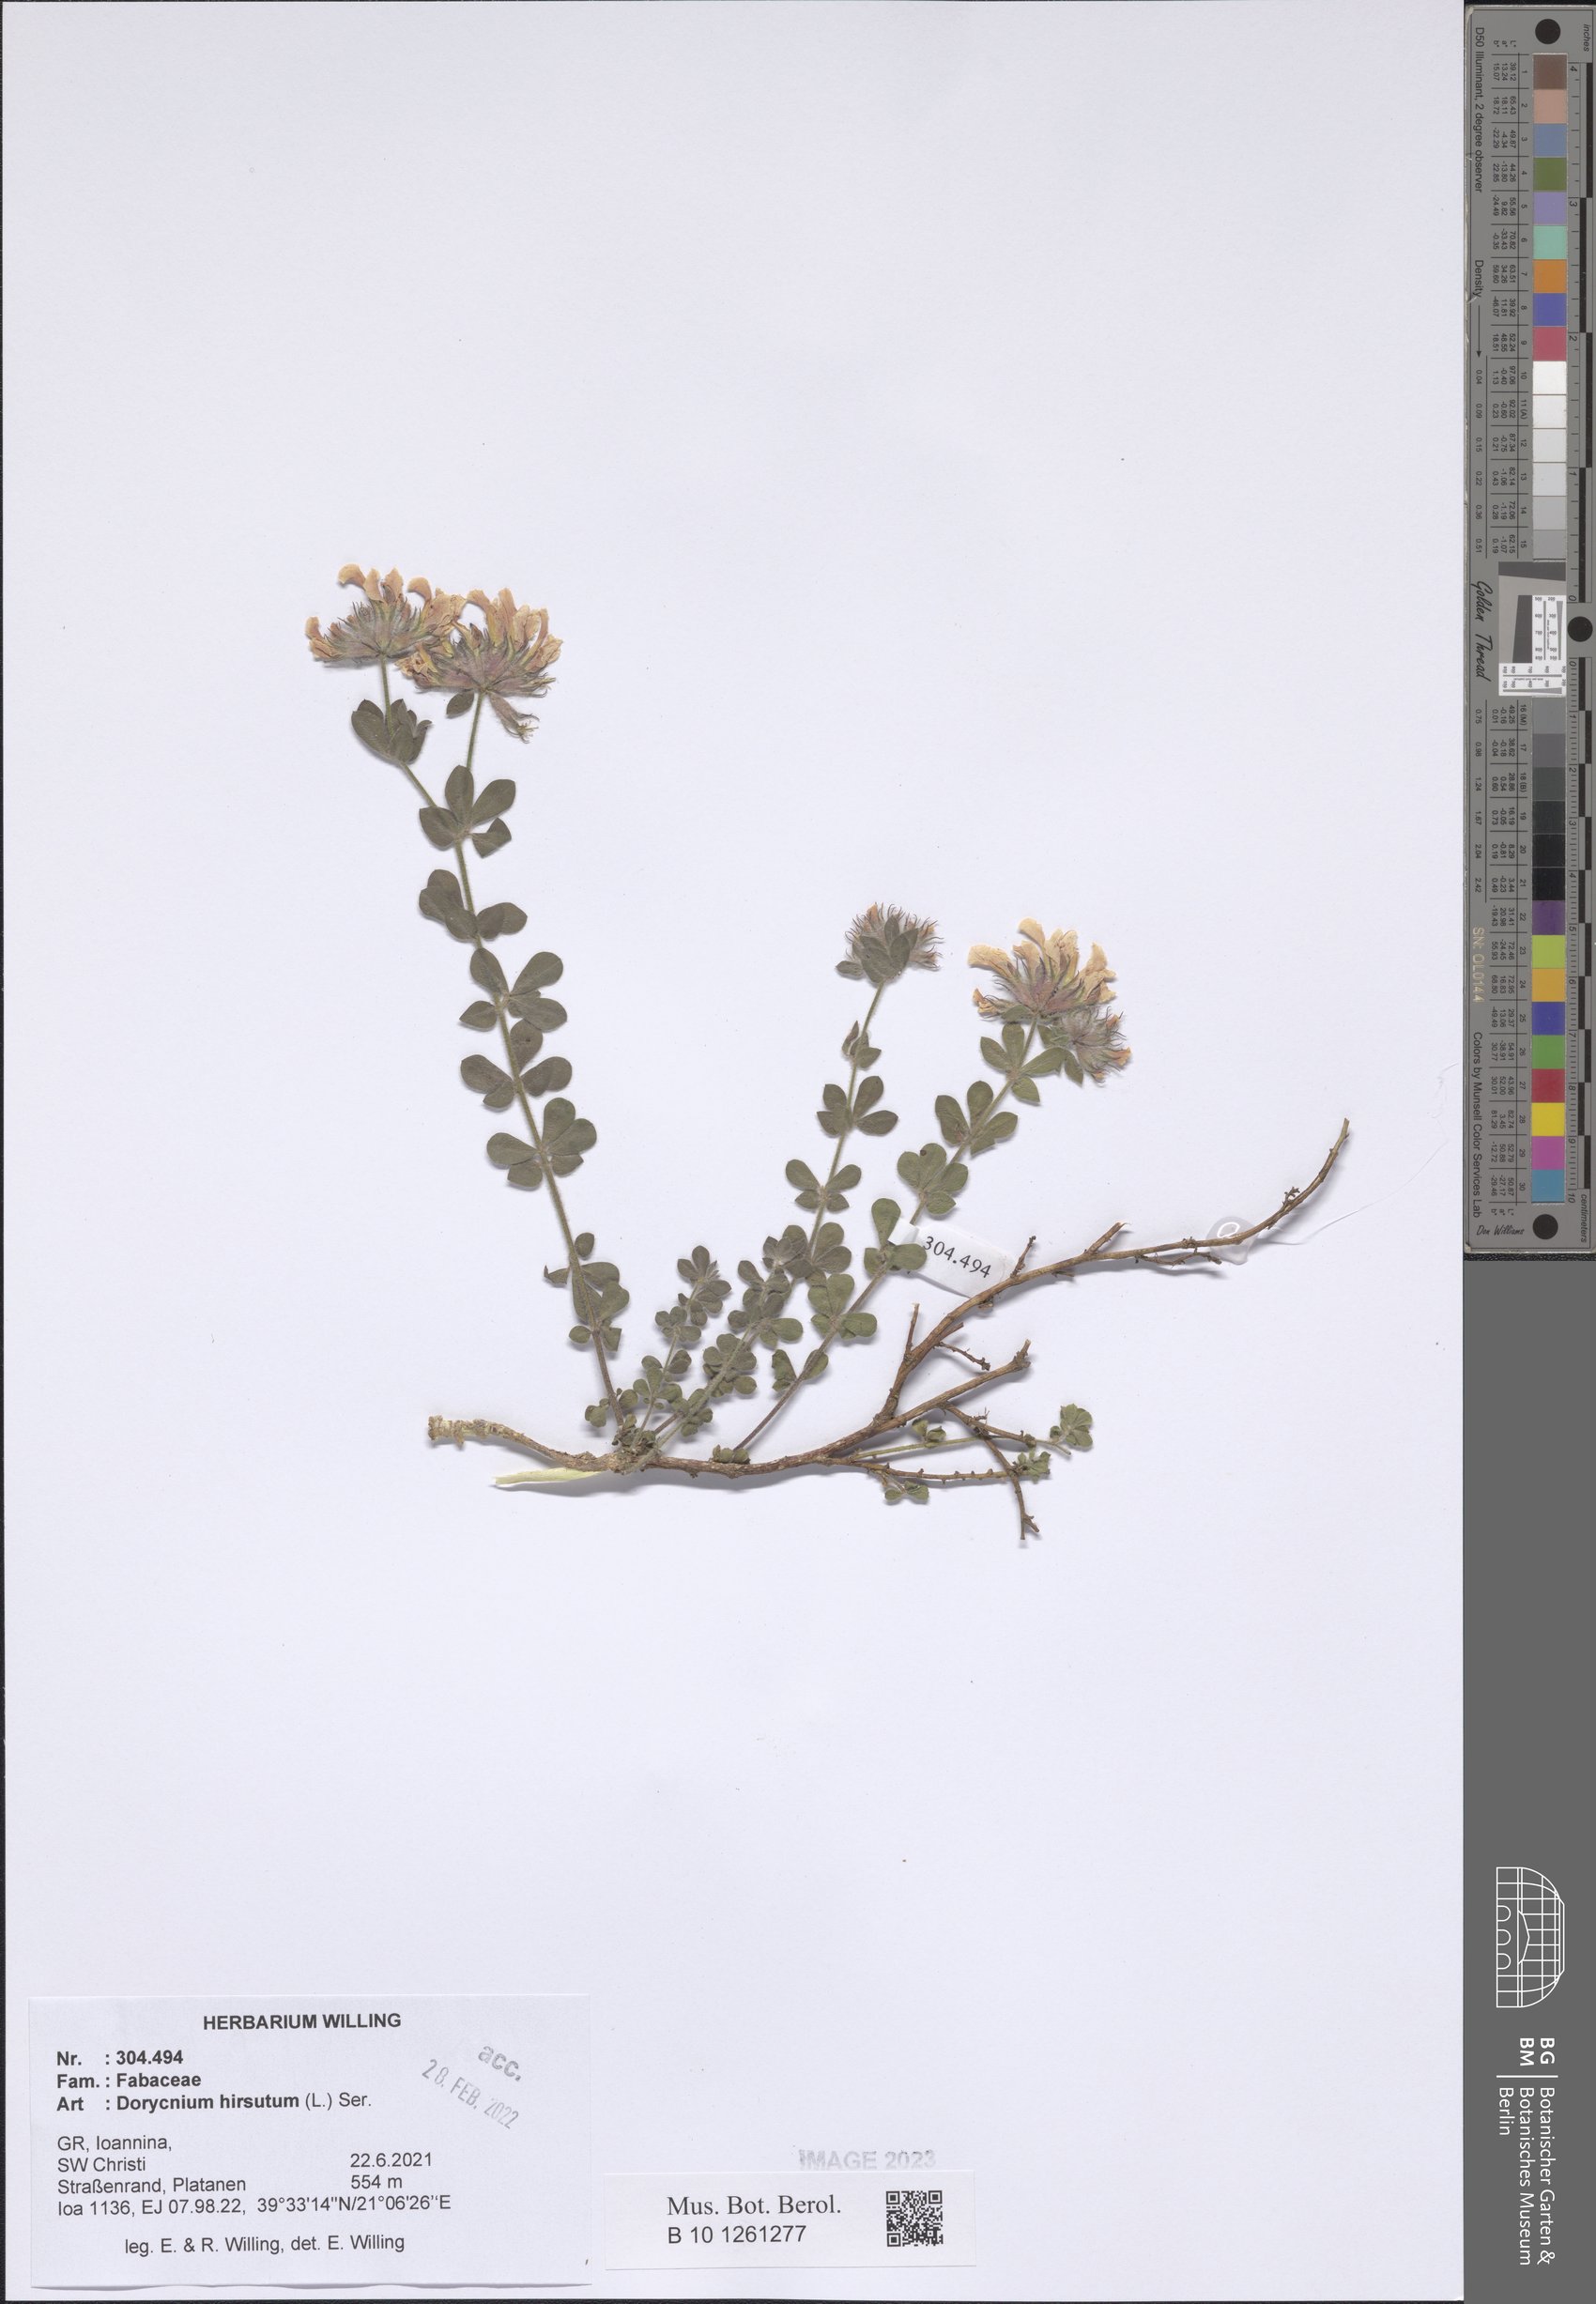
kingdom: Plantae
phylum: Tracheophyta
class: Magnoliopsida
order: Fabales
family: Fabaceae
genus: Lotus
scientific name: Lotus hirsutus
